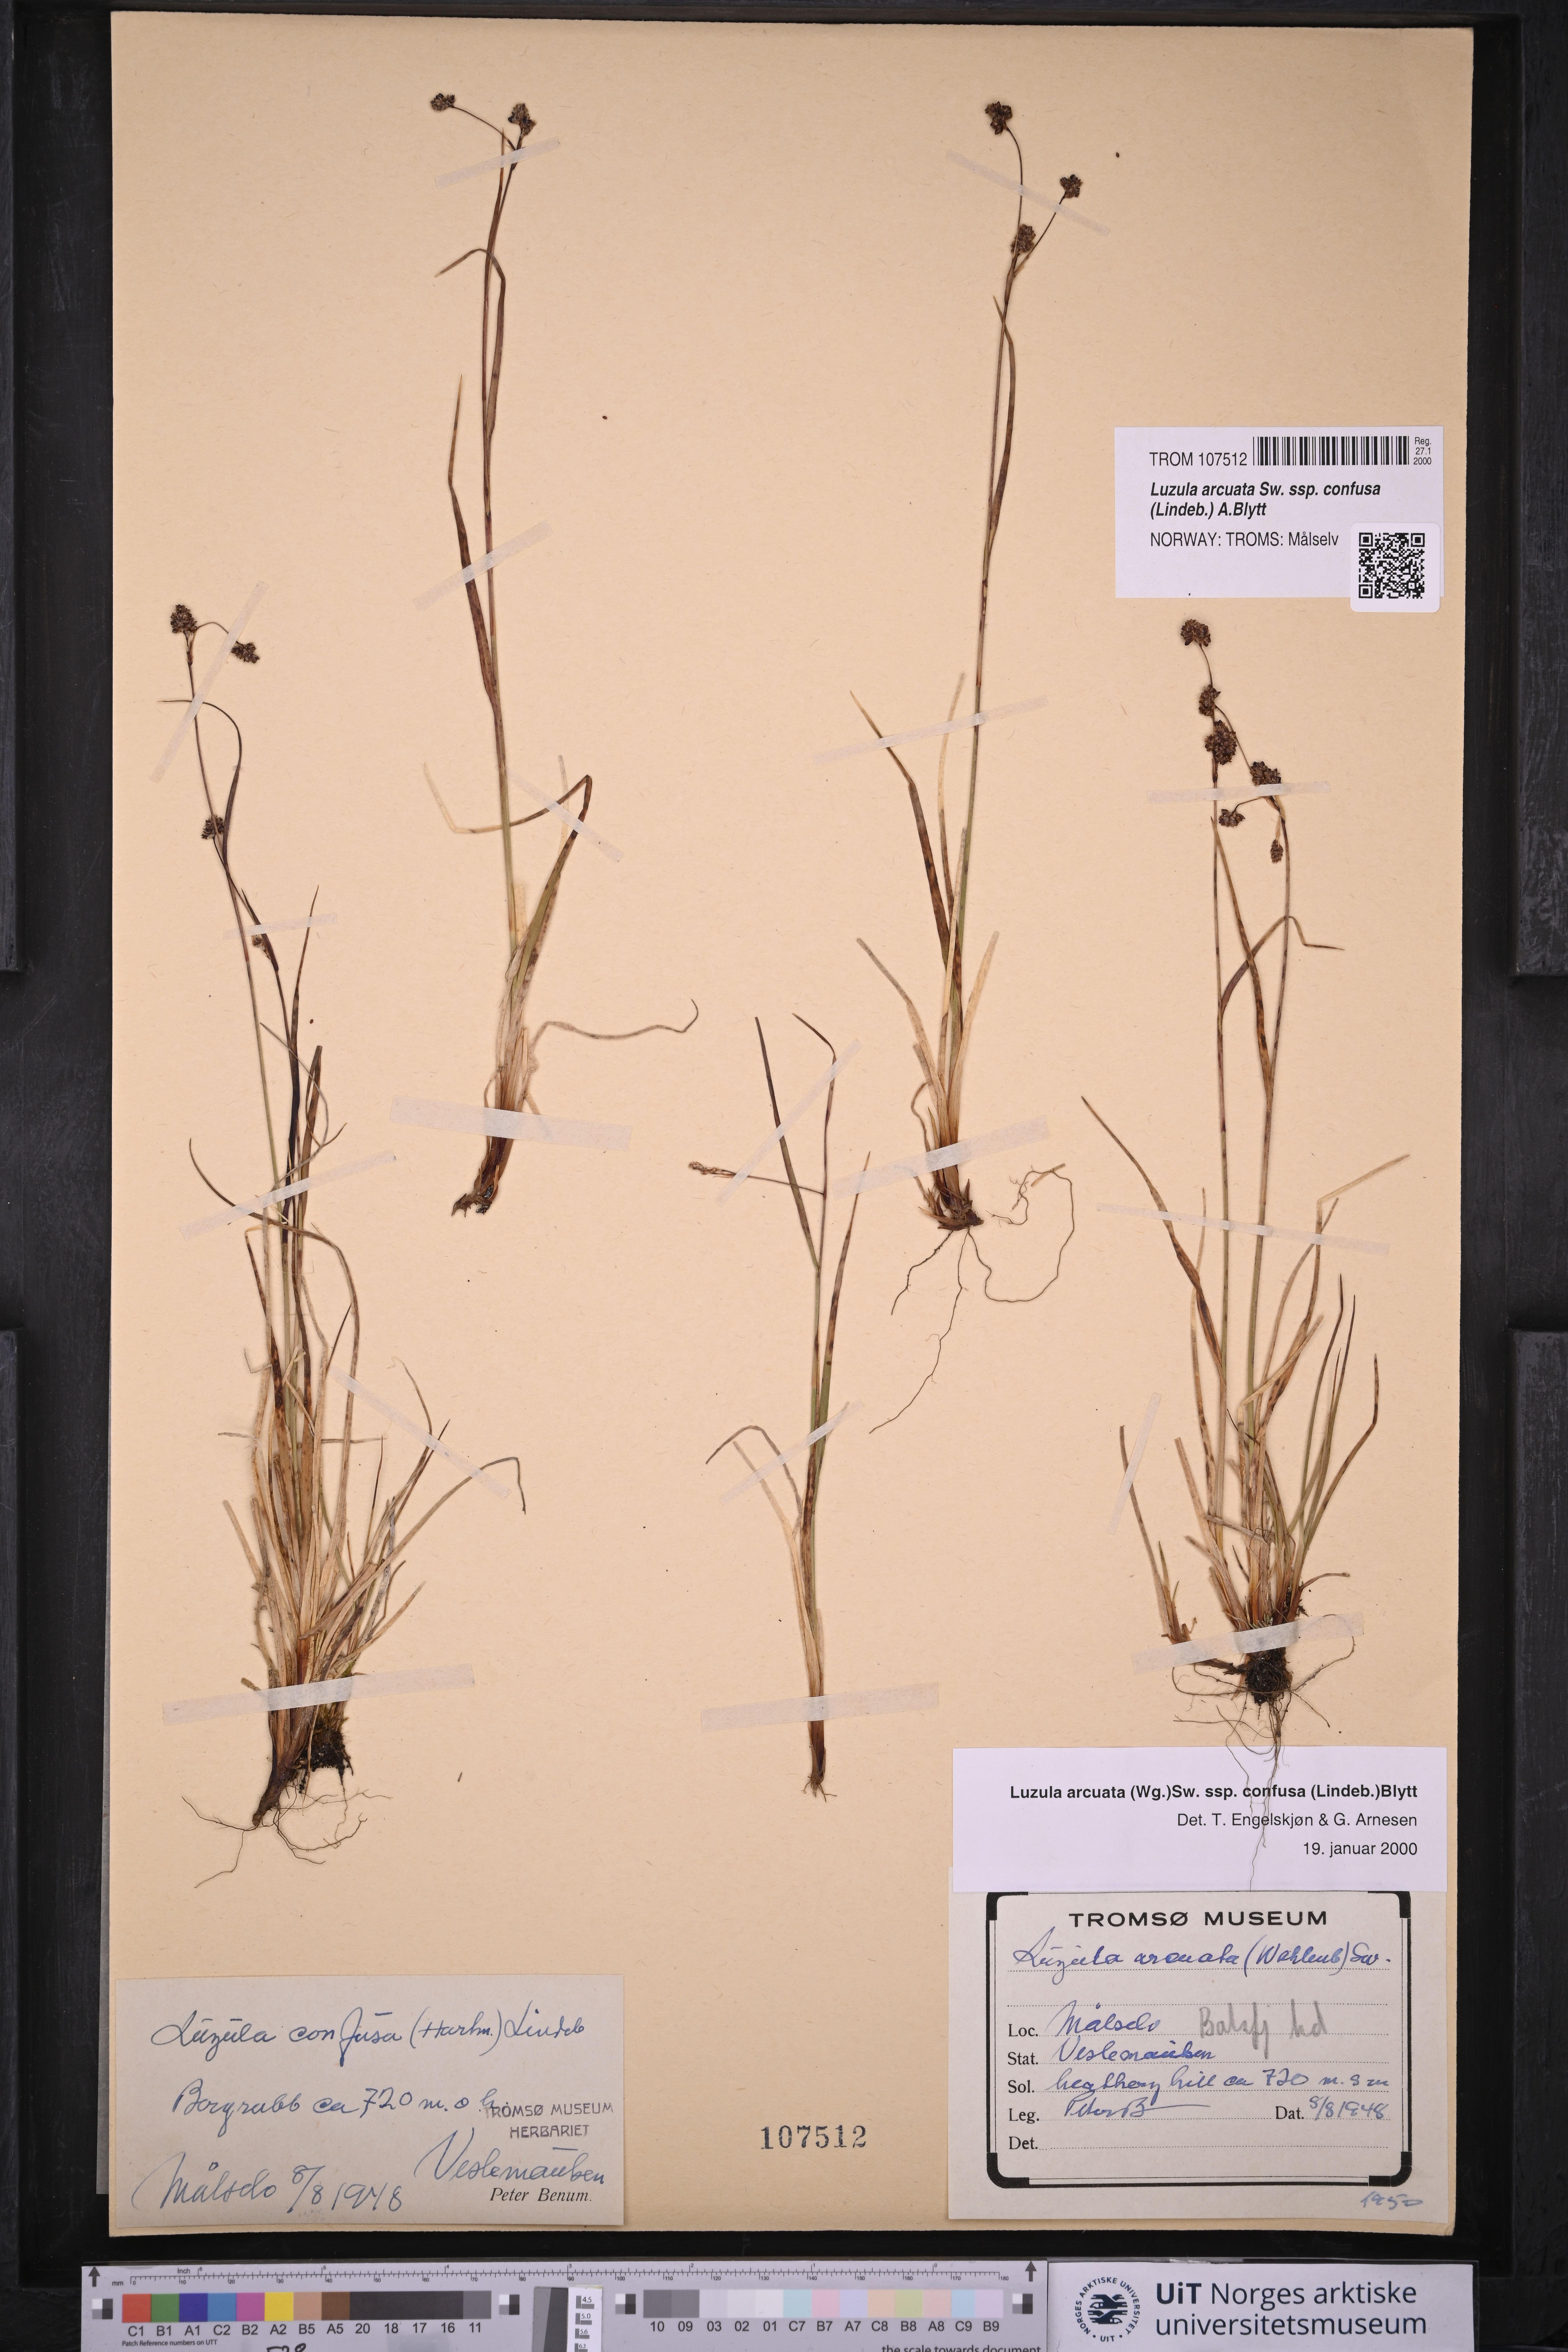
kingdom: Plantae
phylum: Tracheophyta
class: Liliopsida
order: Poales
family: Juncaceae
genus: Luzula
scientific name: Luzula confusa
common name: Northern wood rush
